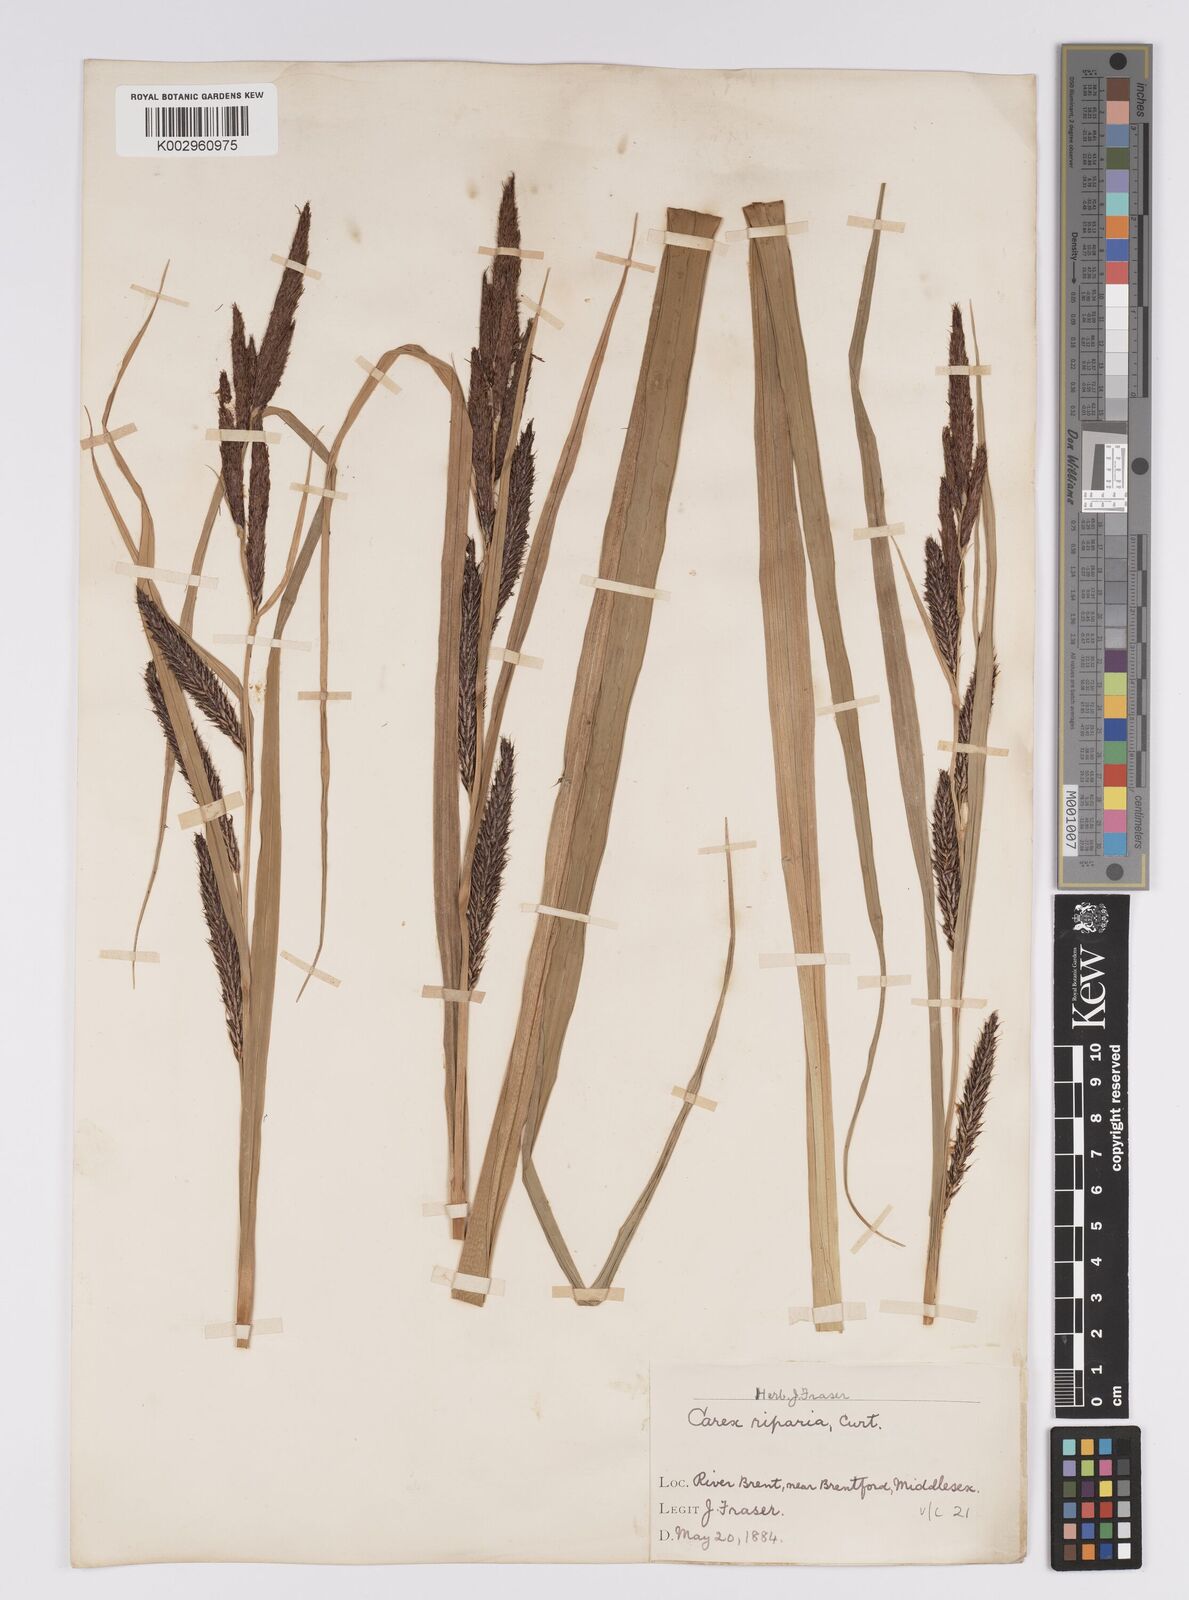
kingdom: Plantae
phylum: Tracheophyta
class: Liliopsida
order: Poales
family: Cyperaceae
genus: Carex
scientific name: Carex riparia
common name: Greater pond-sedge
